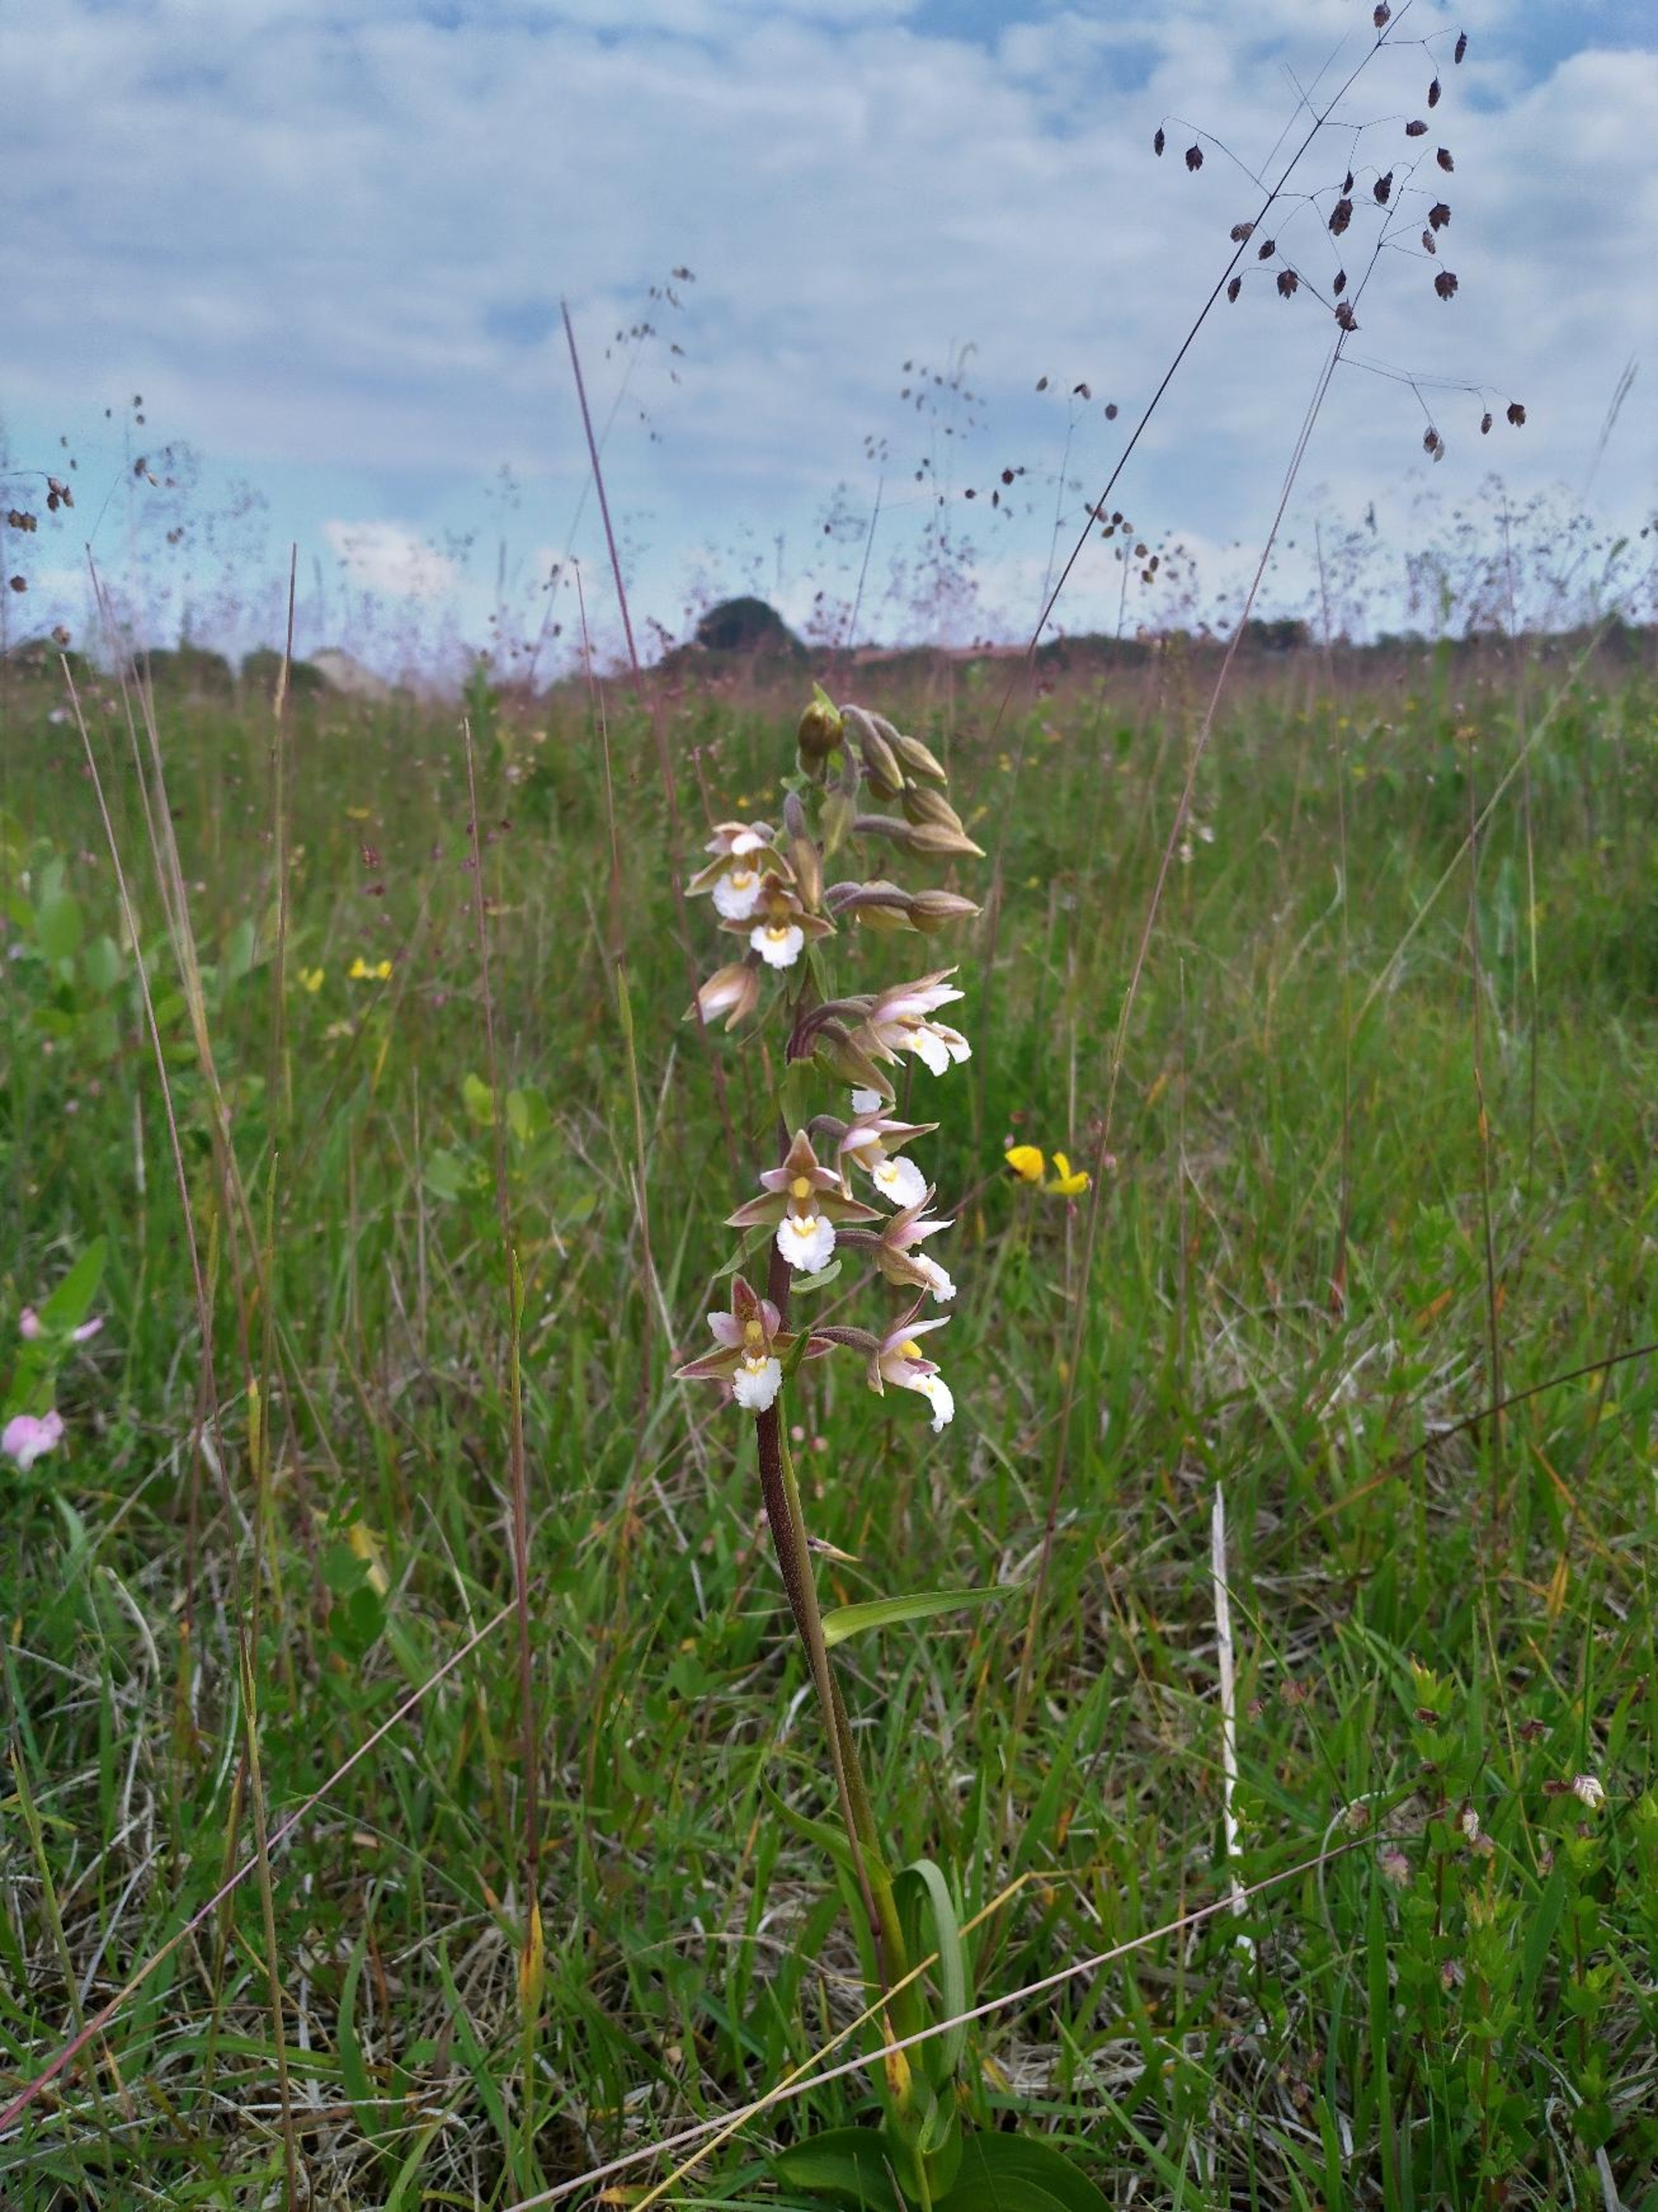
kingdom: Plantae
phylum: Tracheophyta
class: Liliopsida
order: Asparagales
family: Orchidaceae
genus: Epipactis
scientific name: Epipactis palustris
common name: Sump-hullæbe
